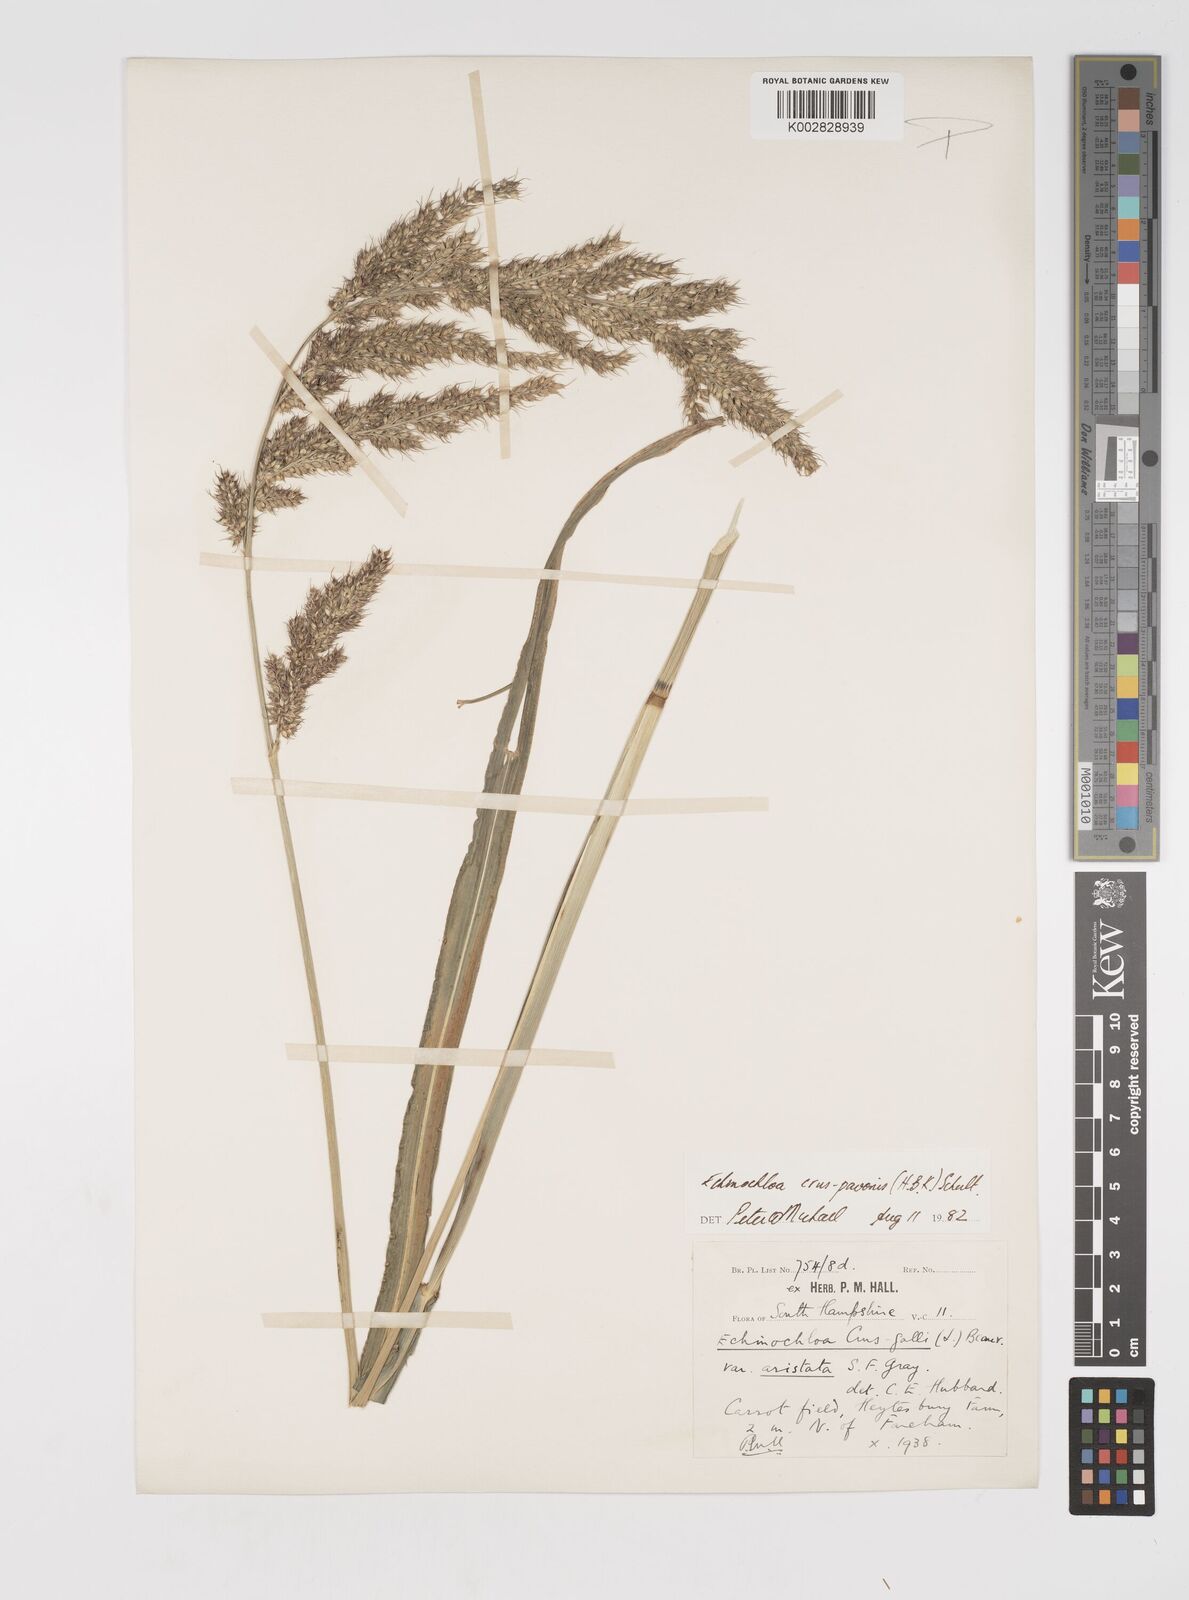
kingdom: Plantae
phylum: Tracheophyta
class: Liliopsida
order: Poales
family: Poaceae
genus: Echinochloa
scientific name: Echinochloa crus-pavonis
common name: Gulf cockspur grass
